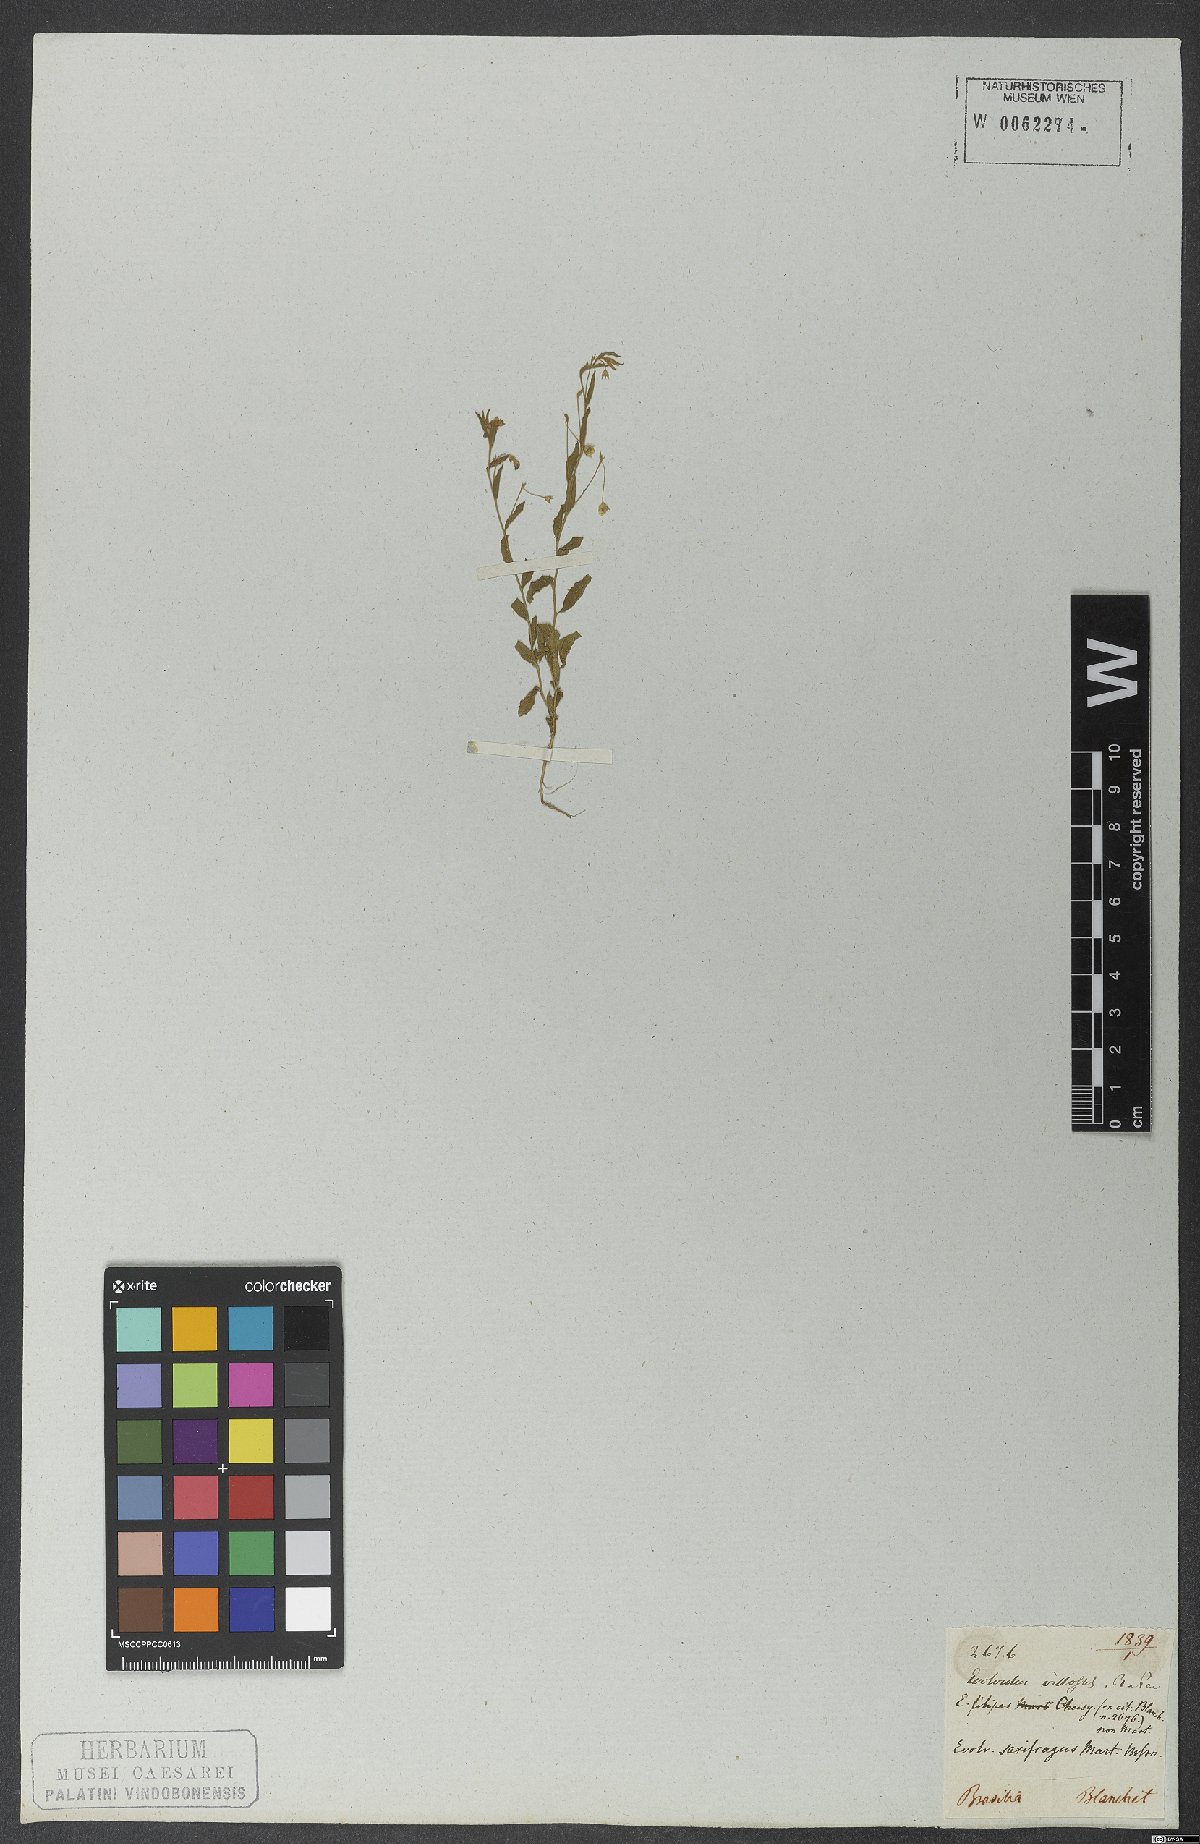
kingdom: Plantae
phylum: Tracheophyta
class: Magnoliopsida
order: Solanales
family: Convolvulaceae
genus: Evolvulus
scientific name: Evolvulus saxifragus
